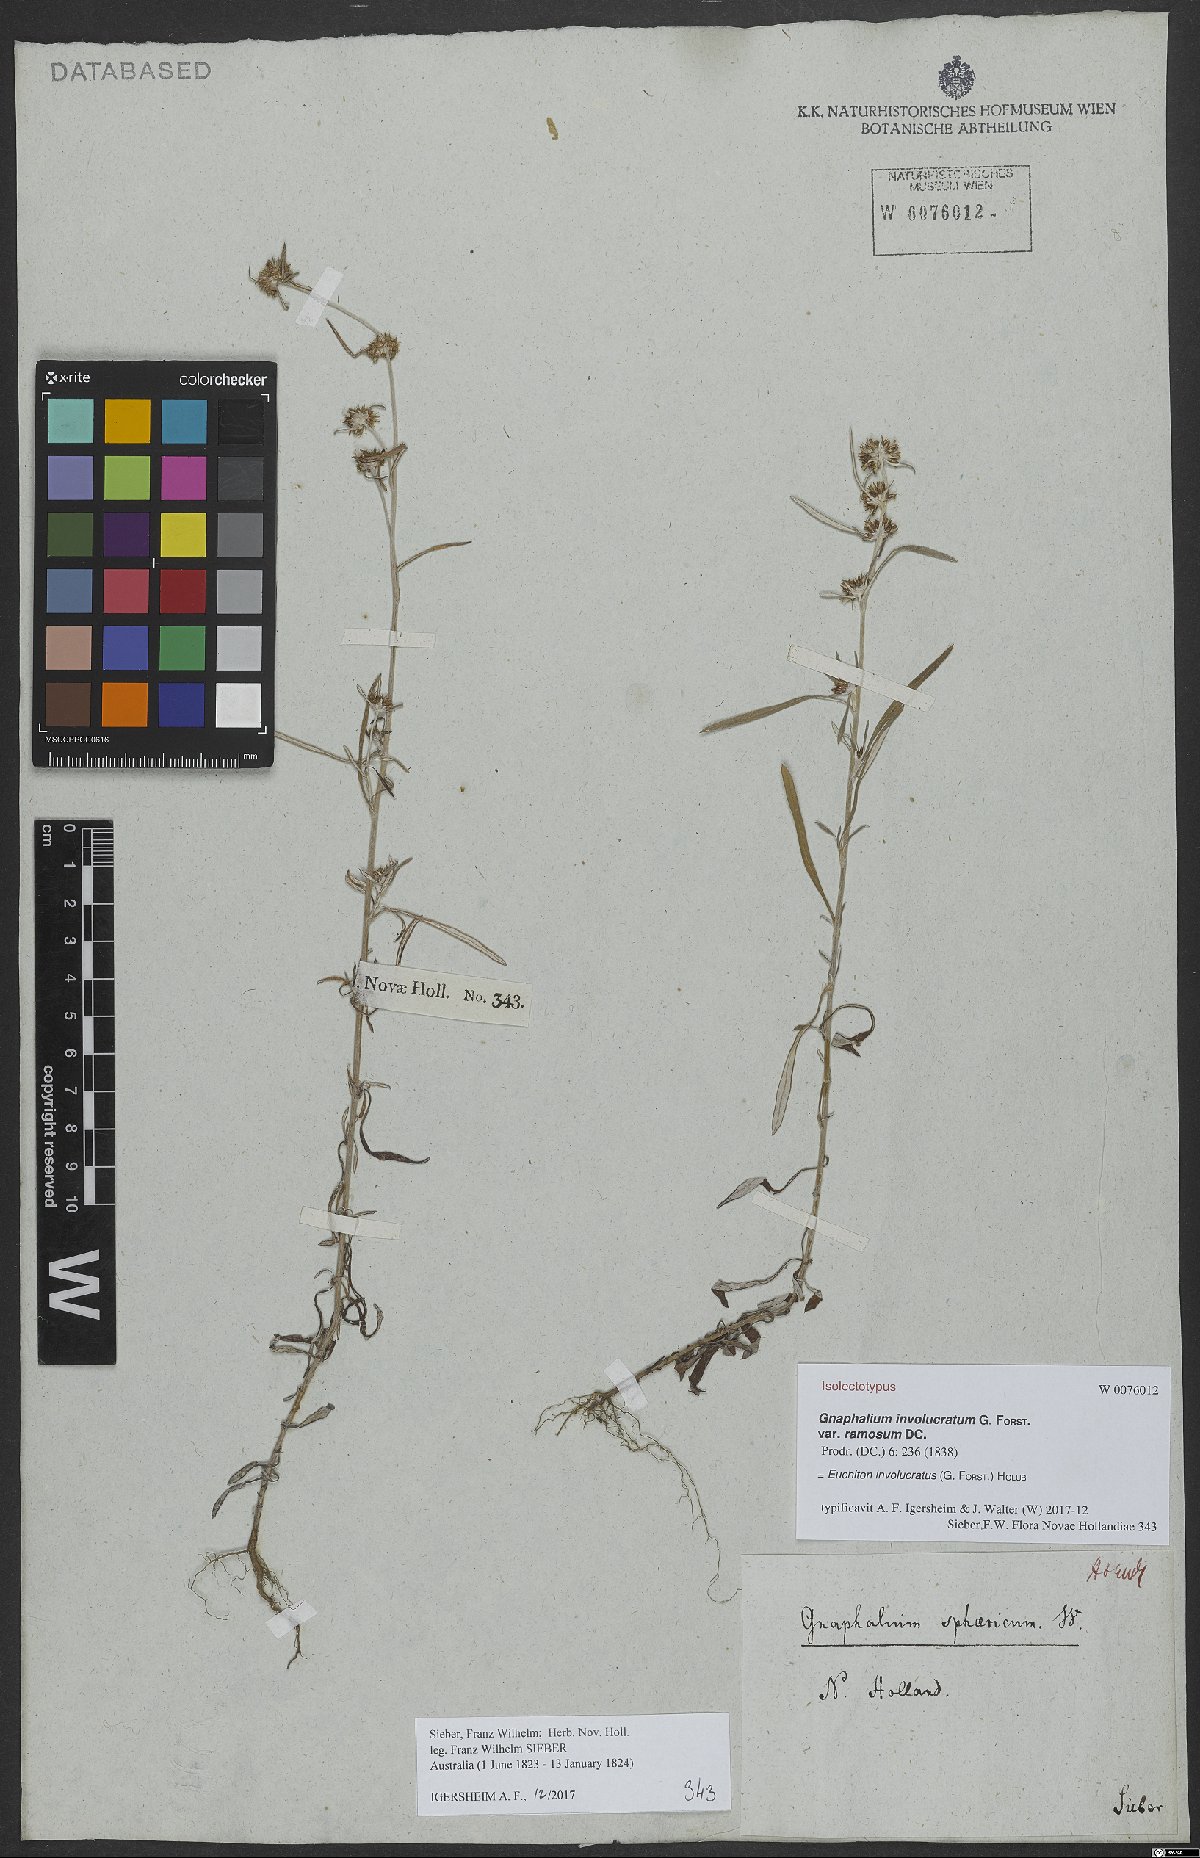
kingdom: Plantae
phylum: Tracheophyta
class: Magnoliopsida
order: Asterales
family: Asteraceae
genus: Euchiton
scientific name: Euchiton involucratus
